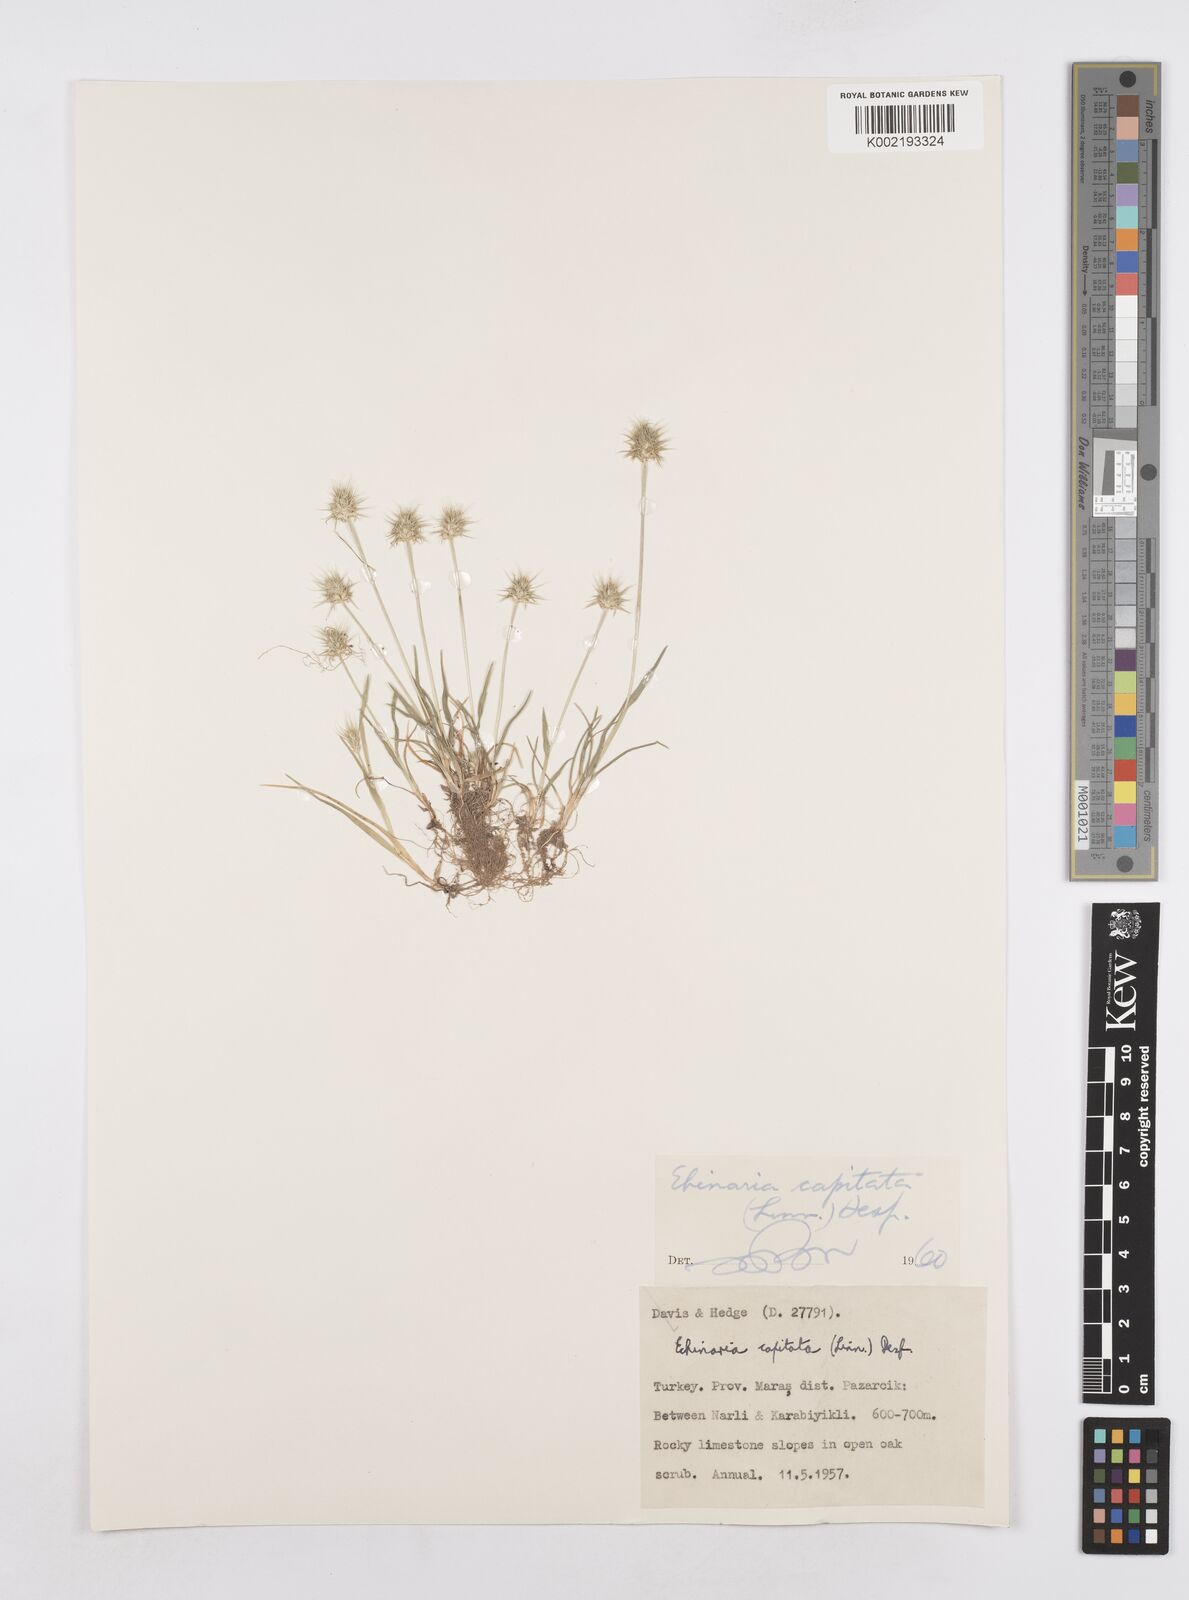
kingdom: Plantae
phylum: Tracheophyta
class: Liliopsida
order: Poales
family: Poaceae
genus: Echinaria
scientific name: Echinaria capitata
